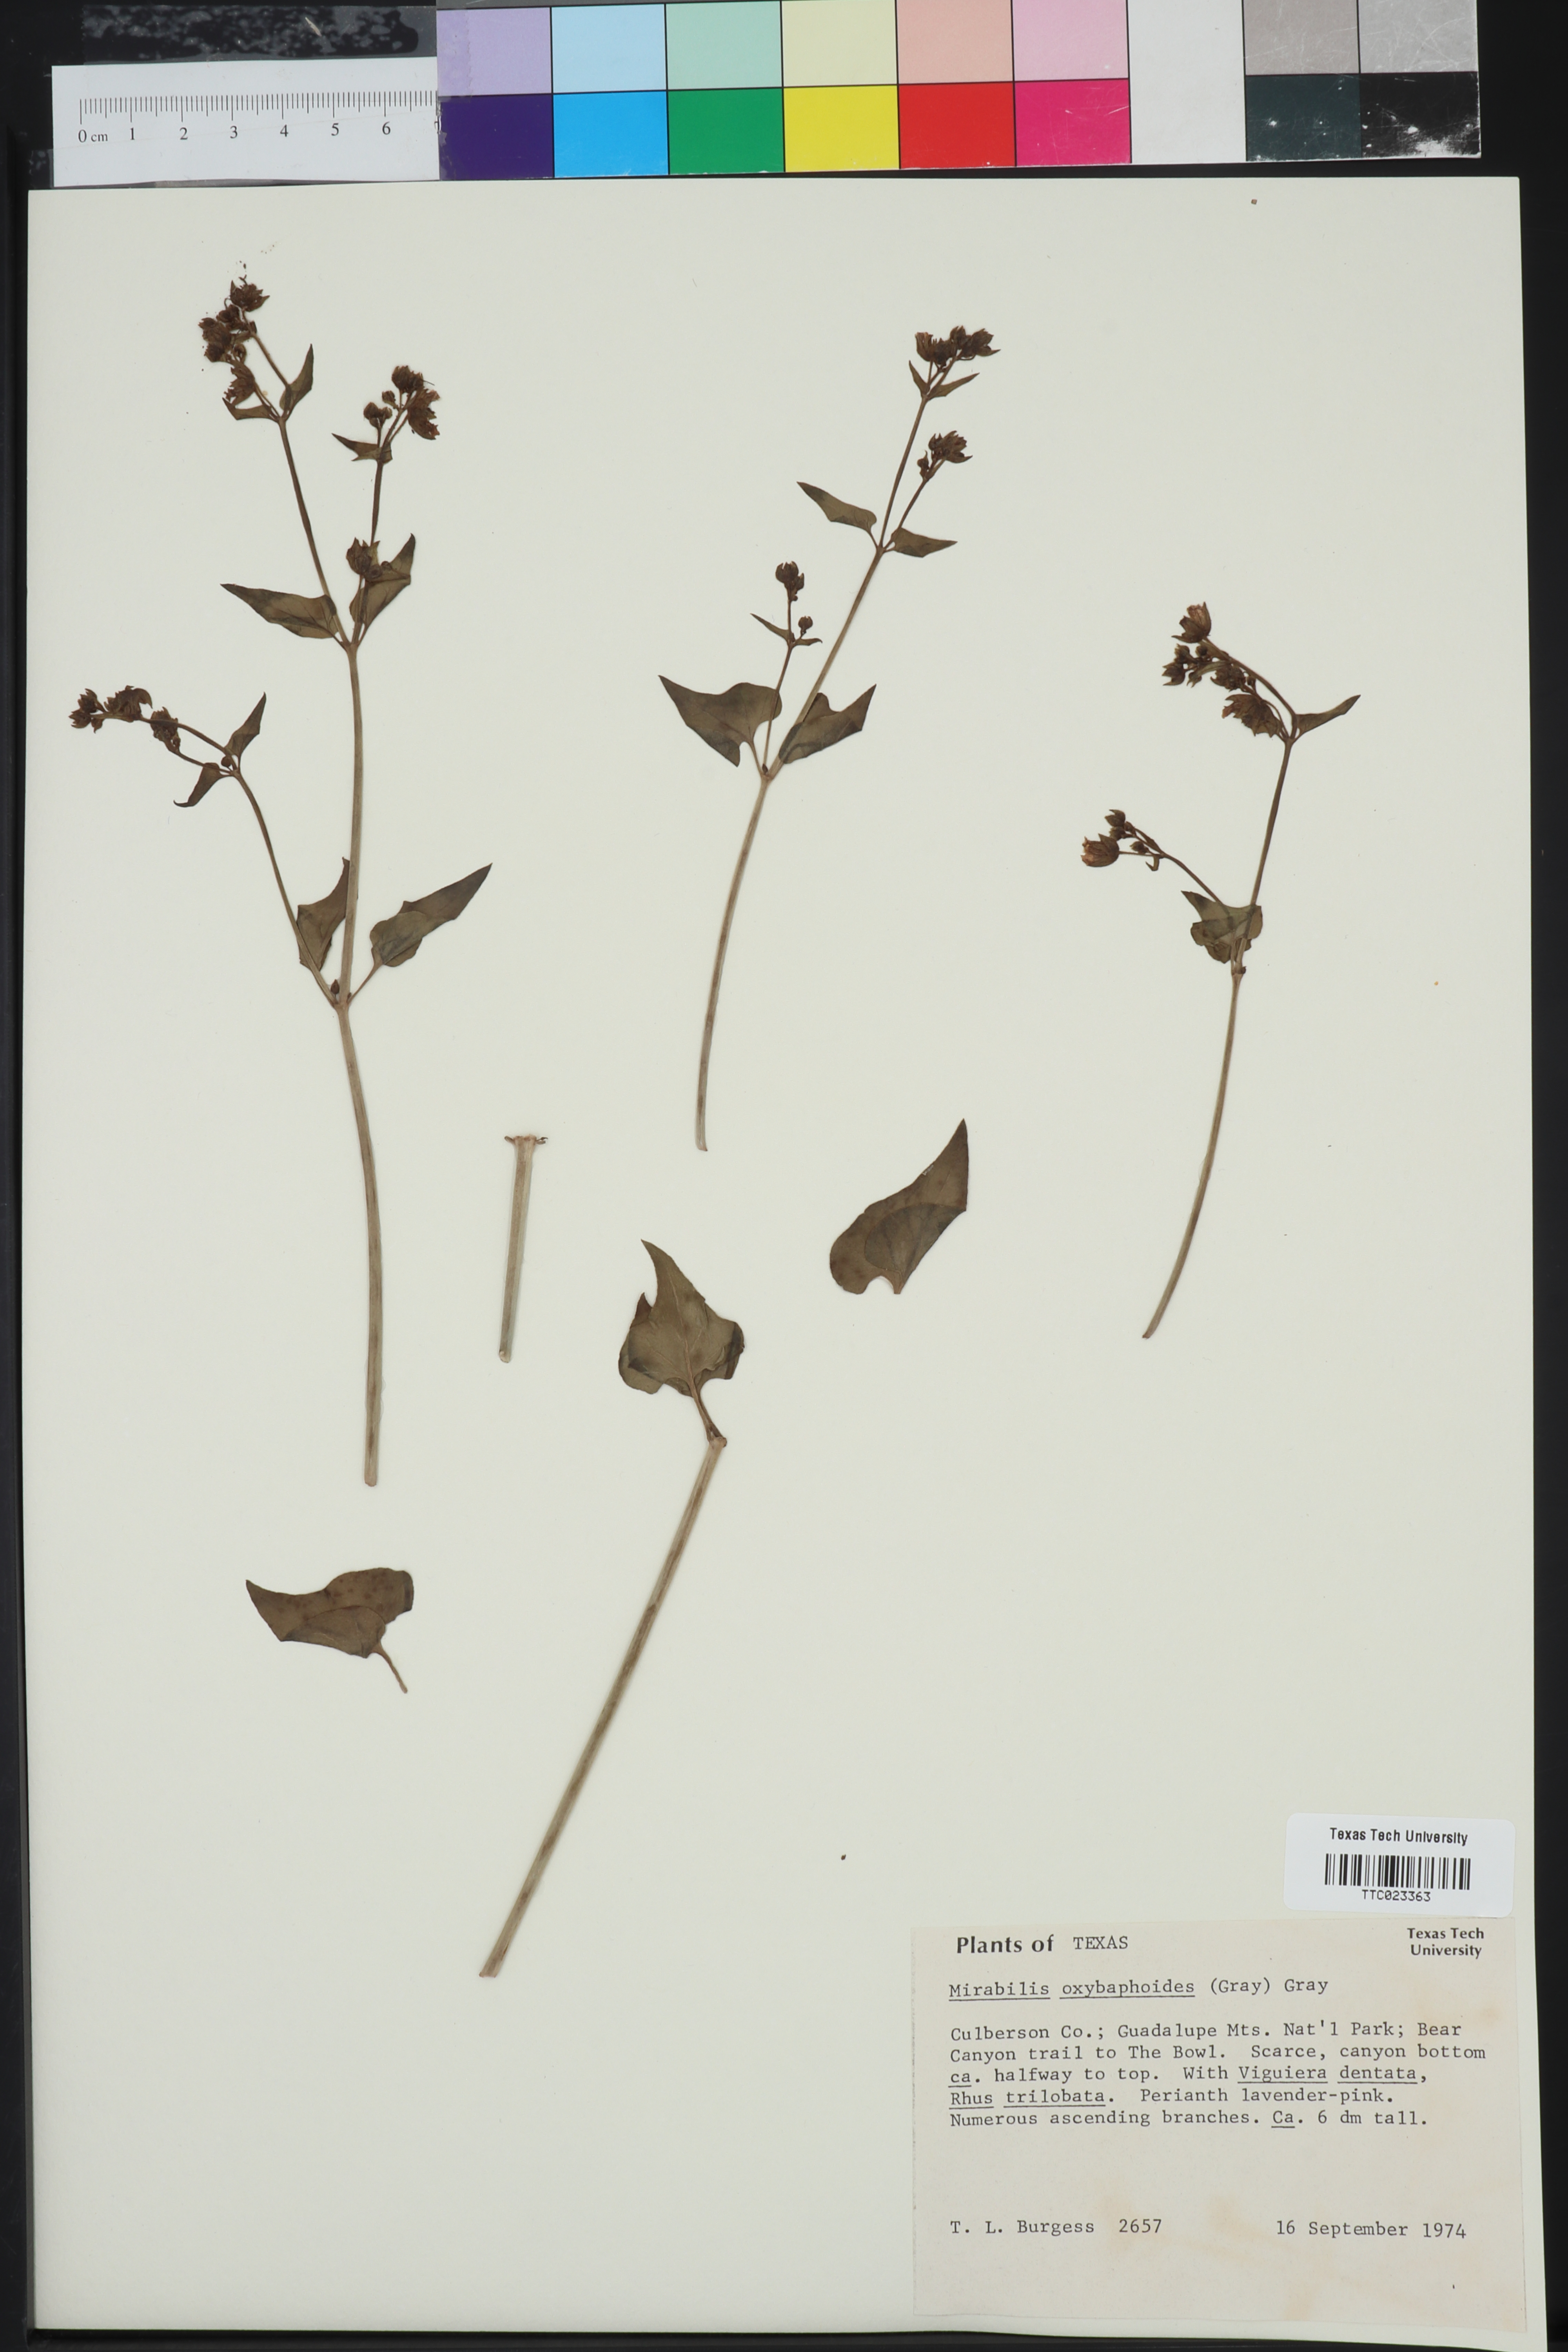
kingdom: Plantae
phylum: Tracheophyta
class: Magnoliopsida
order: Caryophyllales
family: Nyctaginaceae
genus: Mirabilis
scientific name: Mirabilis oxybaphoides
